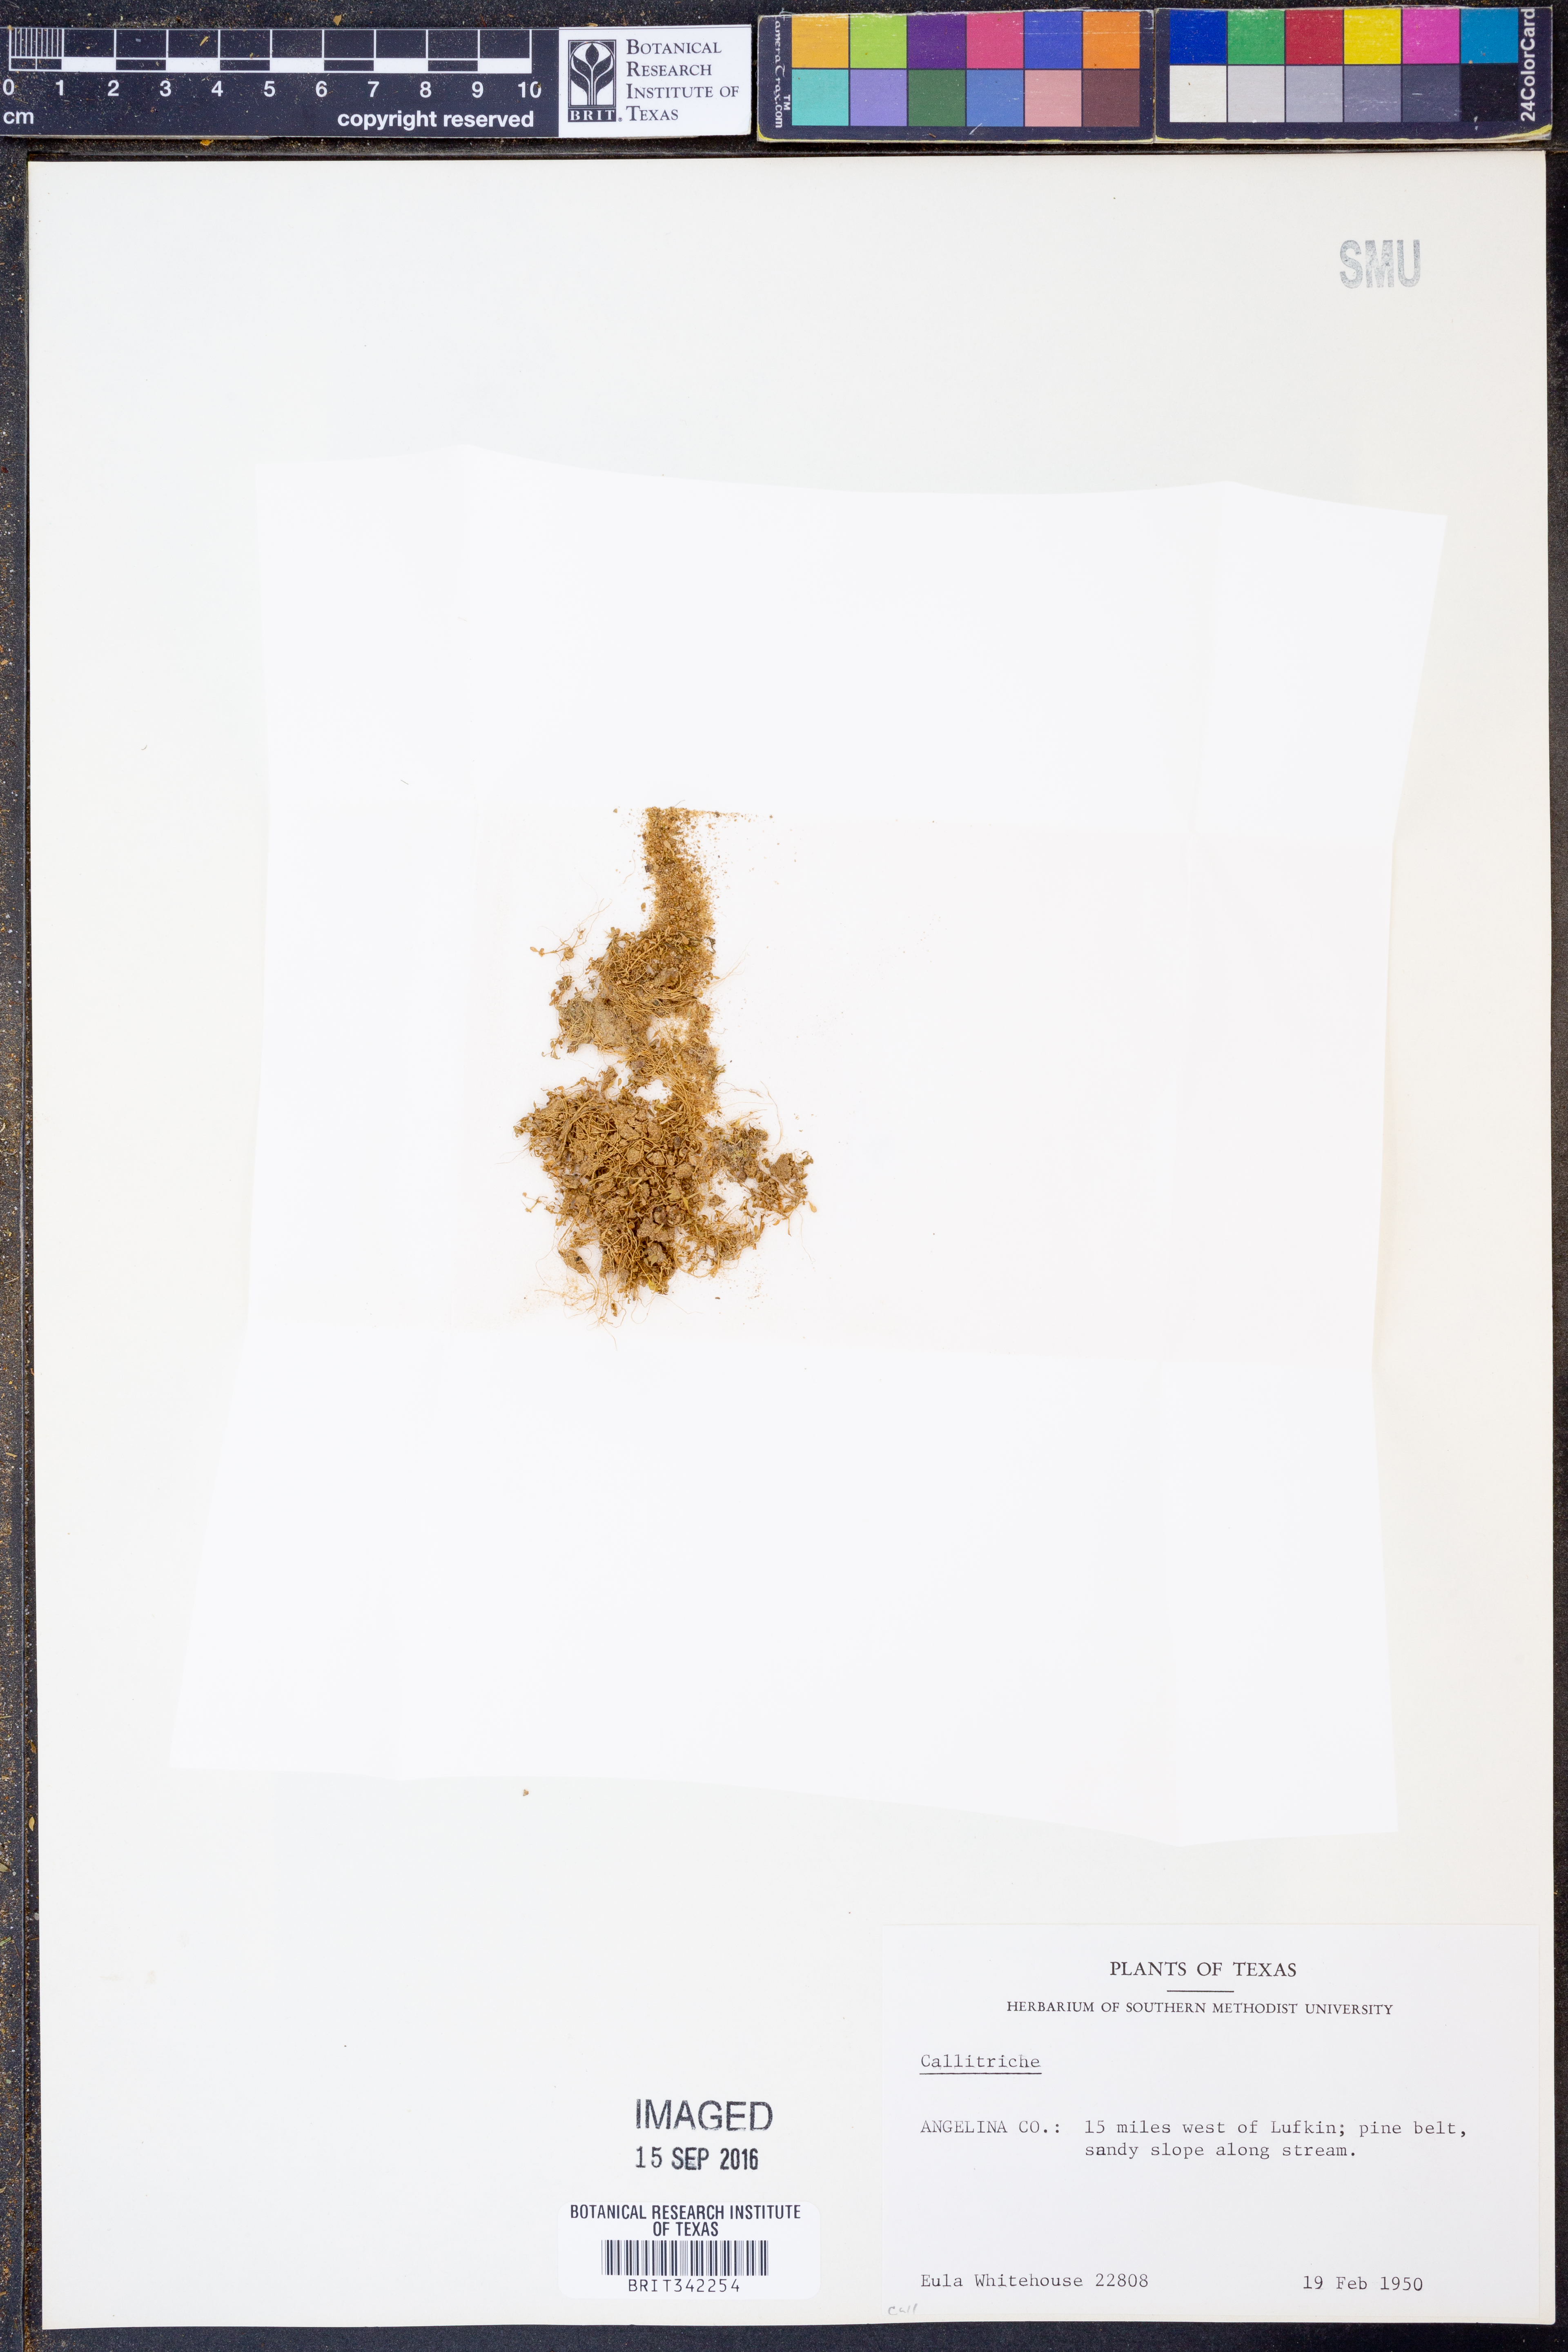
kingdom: Plantae
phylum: Tracheophyta
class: Magnoliopsida
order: Lamiales
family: Plantaginaceae
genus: Callitriche
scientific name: Callitriche
